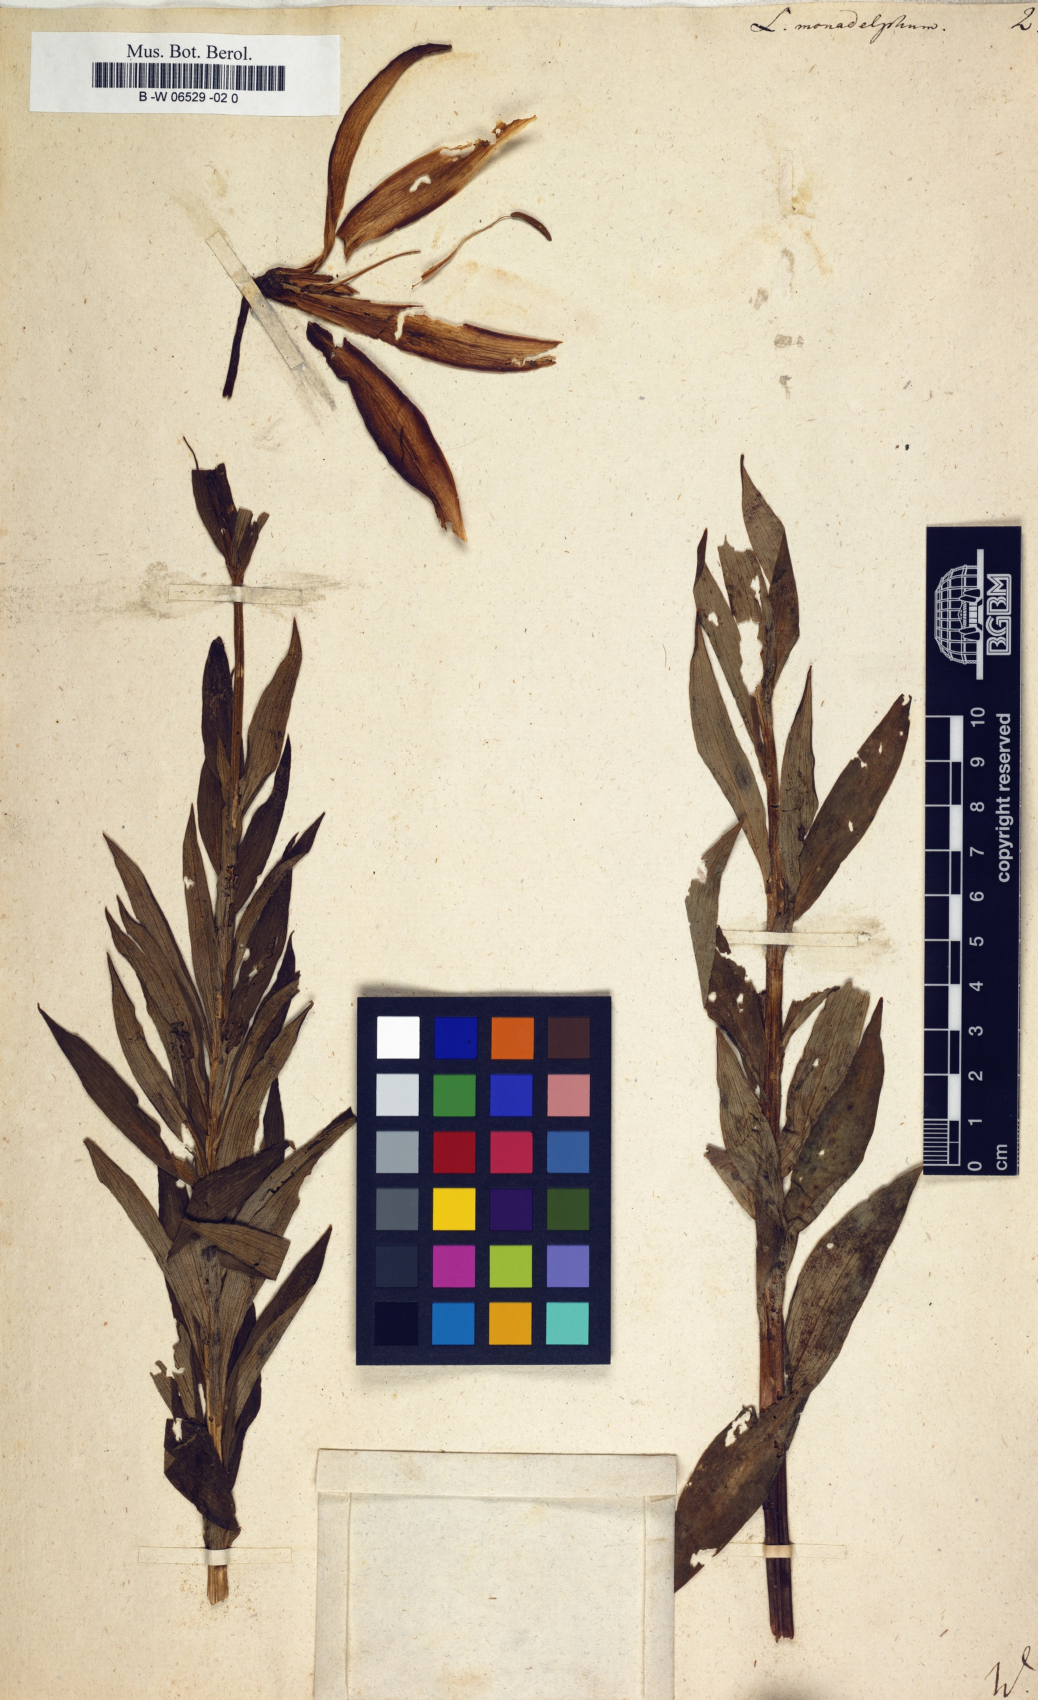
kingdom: Plantae
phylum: Tracheophyta
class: Liliopsida
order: Liliales
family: Liliaceae
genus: Lilium
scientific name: Lilium monadelphum
